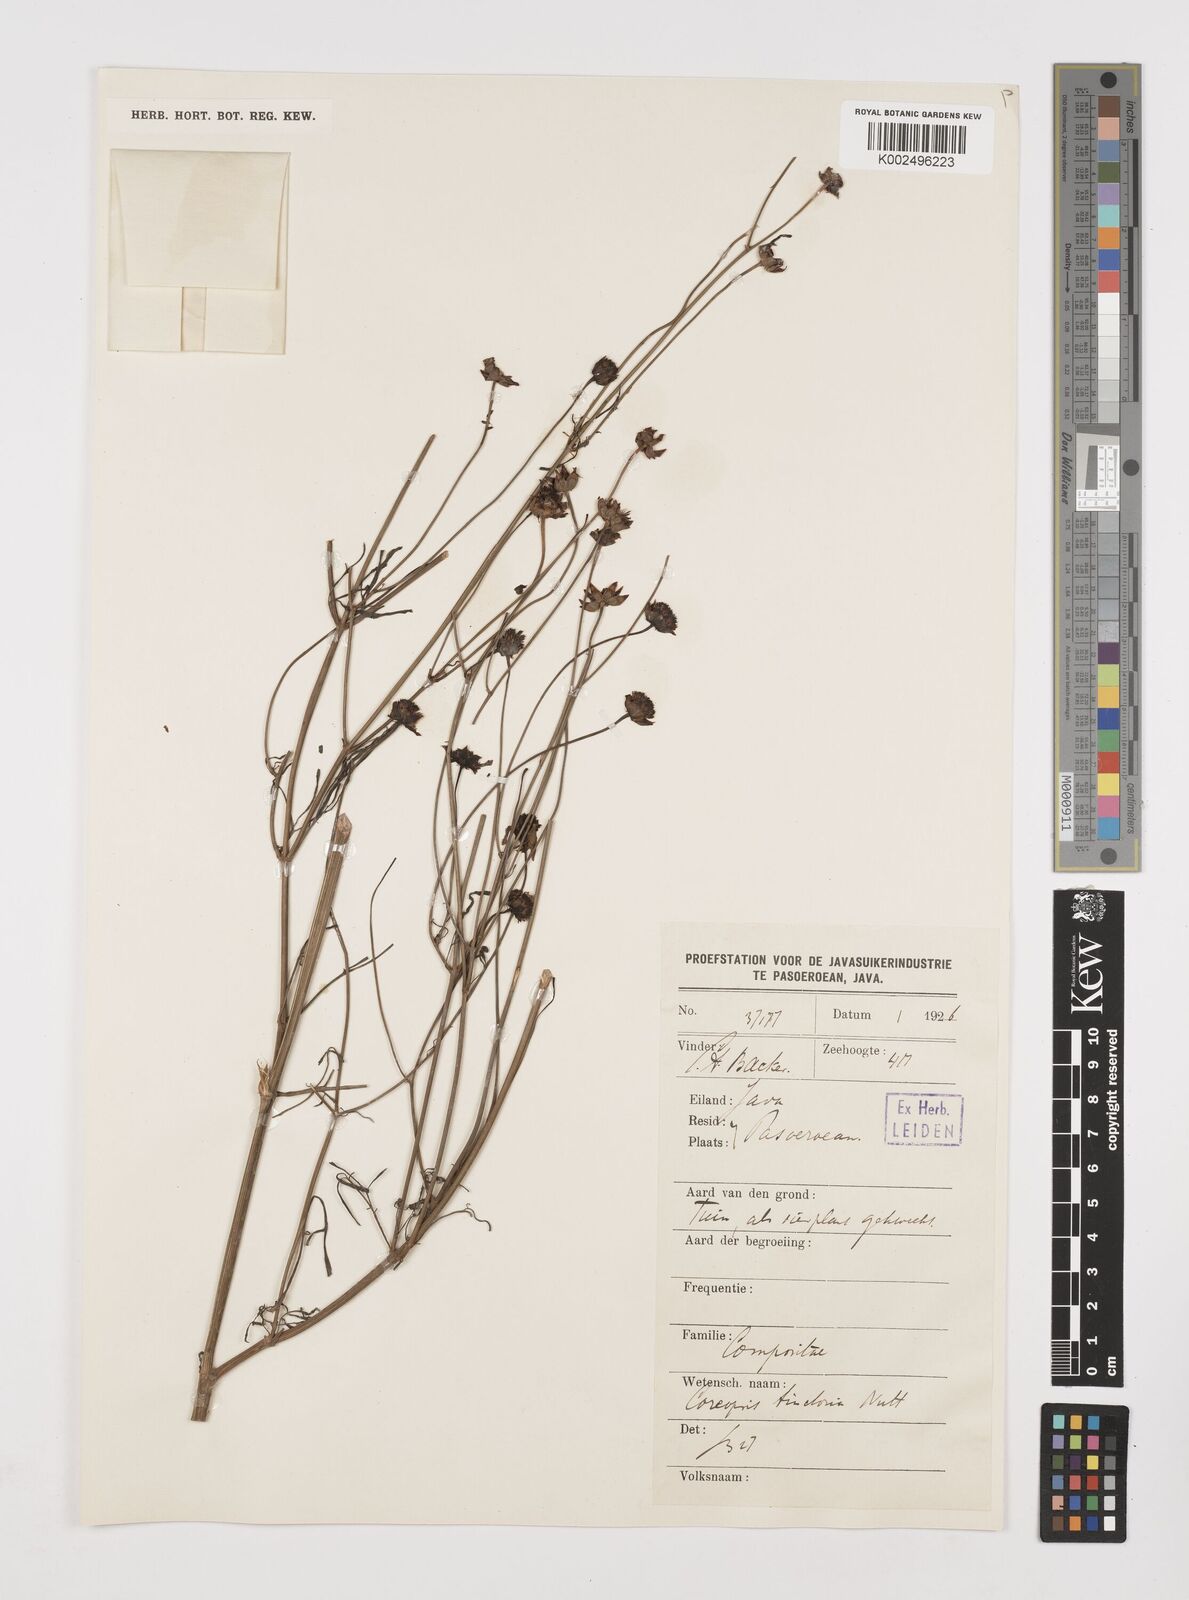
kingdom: Plantae
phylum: Tracheophyta
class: Magnoliopsida
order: Asterales
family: Asteraceae
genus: Coreopsis
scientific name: Coreopsis tinctoria
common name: Garden tickseed
